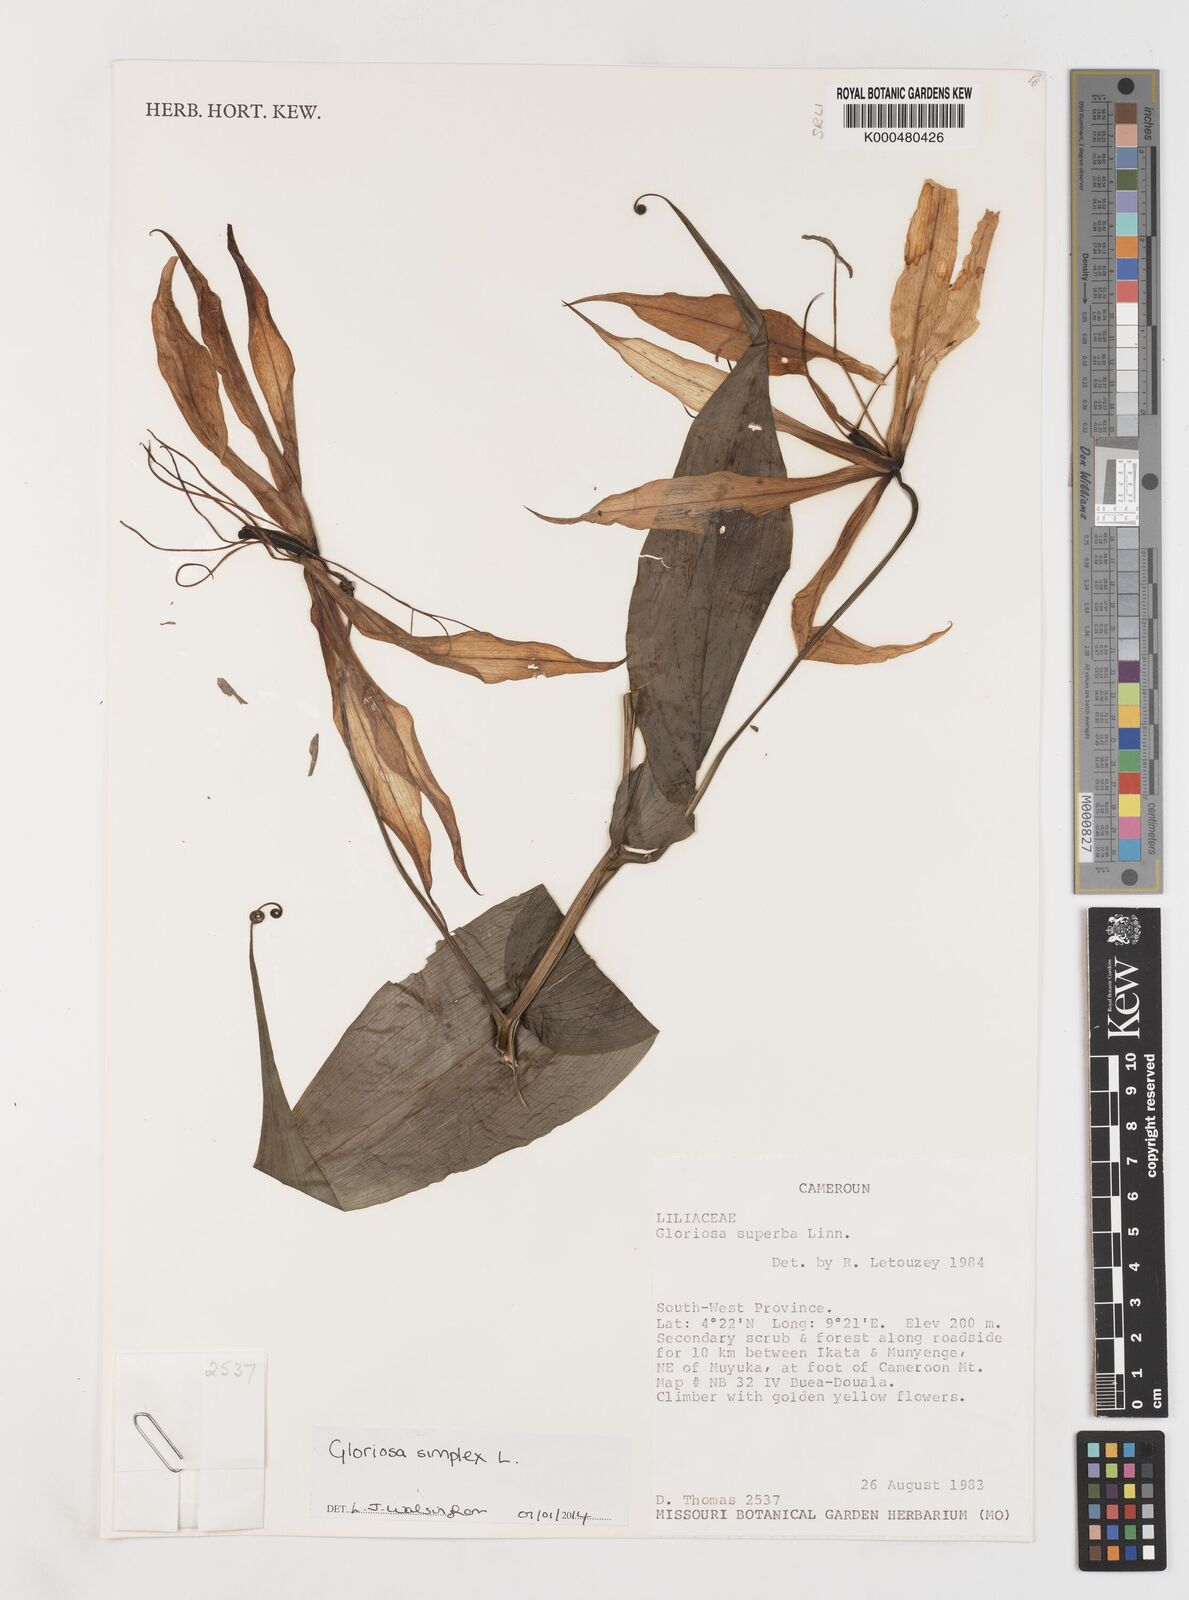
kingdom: Plantae
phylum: Tracheophyta
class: Liliopsida
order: Liliales
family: Colchicaceae
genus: Gloriosa
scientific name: Gloriosa simplex
